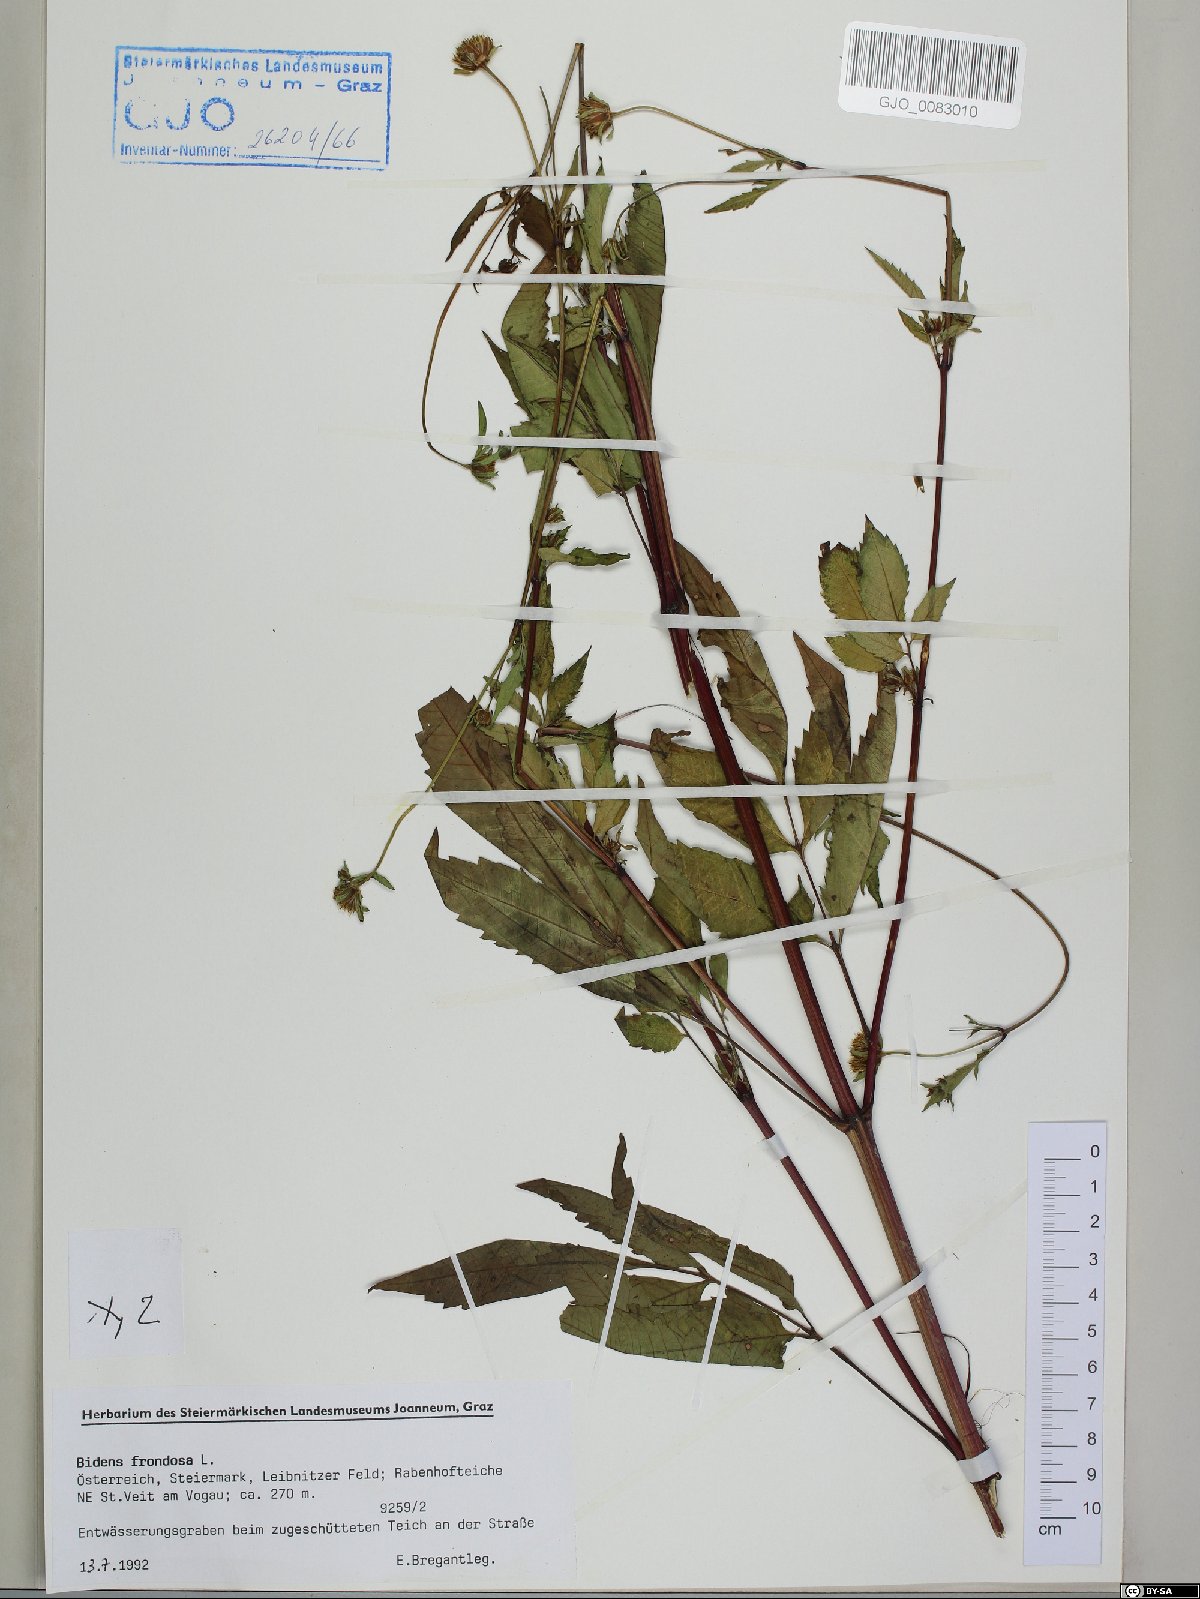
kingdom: Plantae
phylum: Tracheophyta
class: Magnoliopsida
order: Asterales
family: Asteraceae
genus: Bidens
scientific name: Bidens frondosa
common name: Beggarticks
